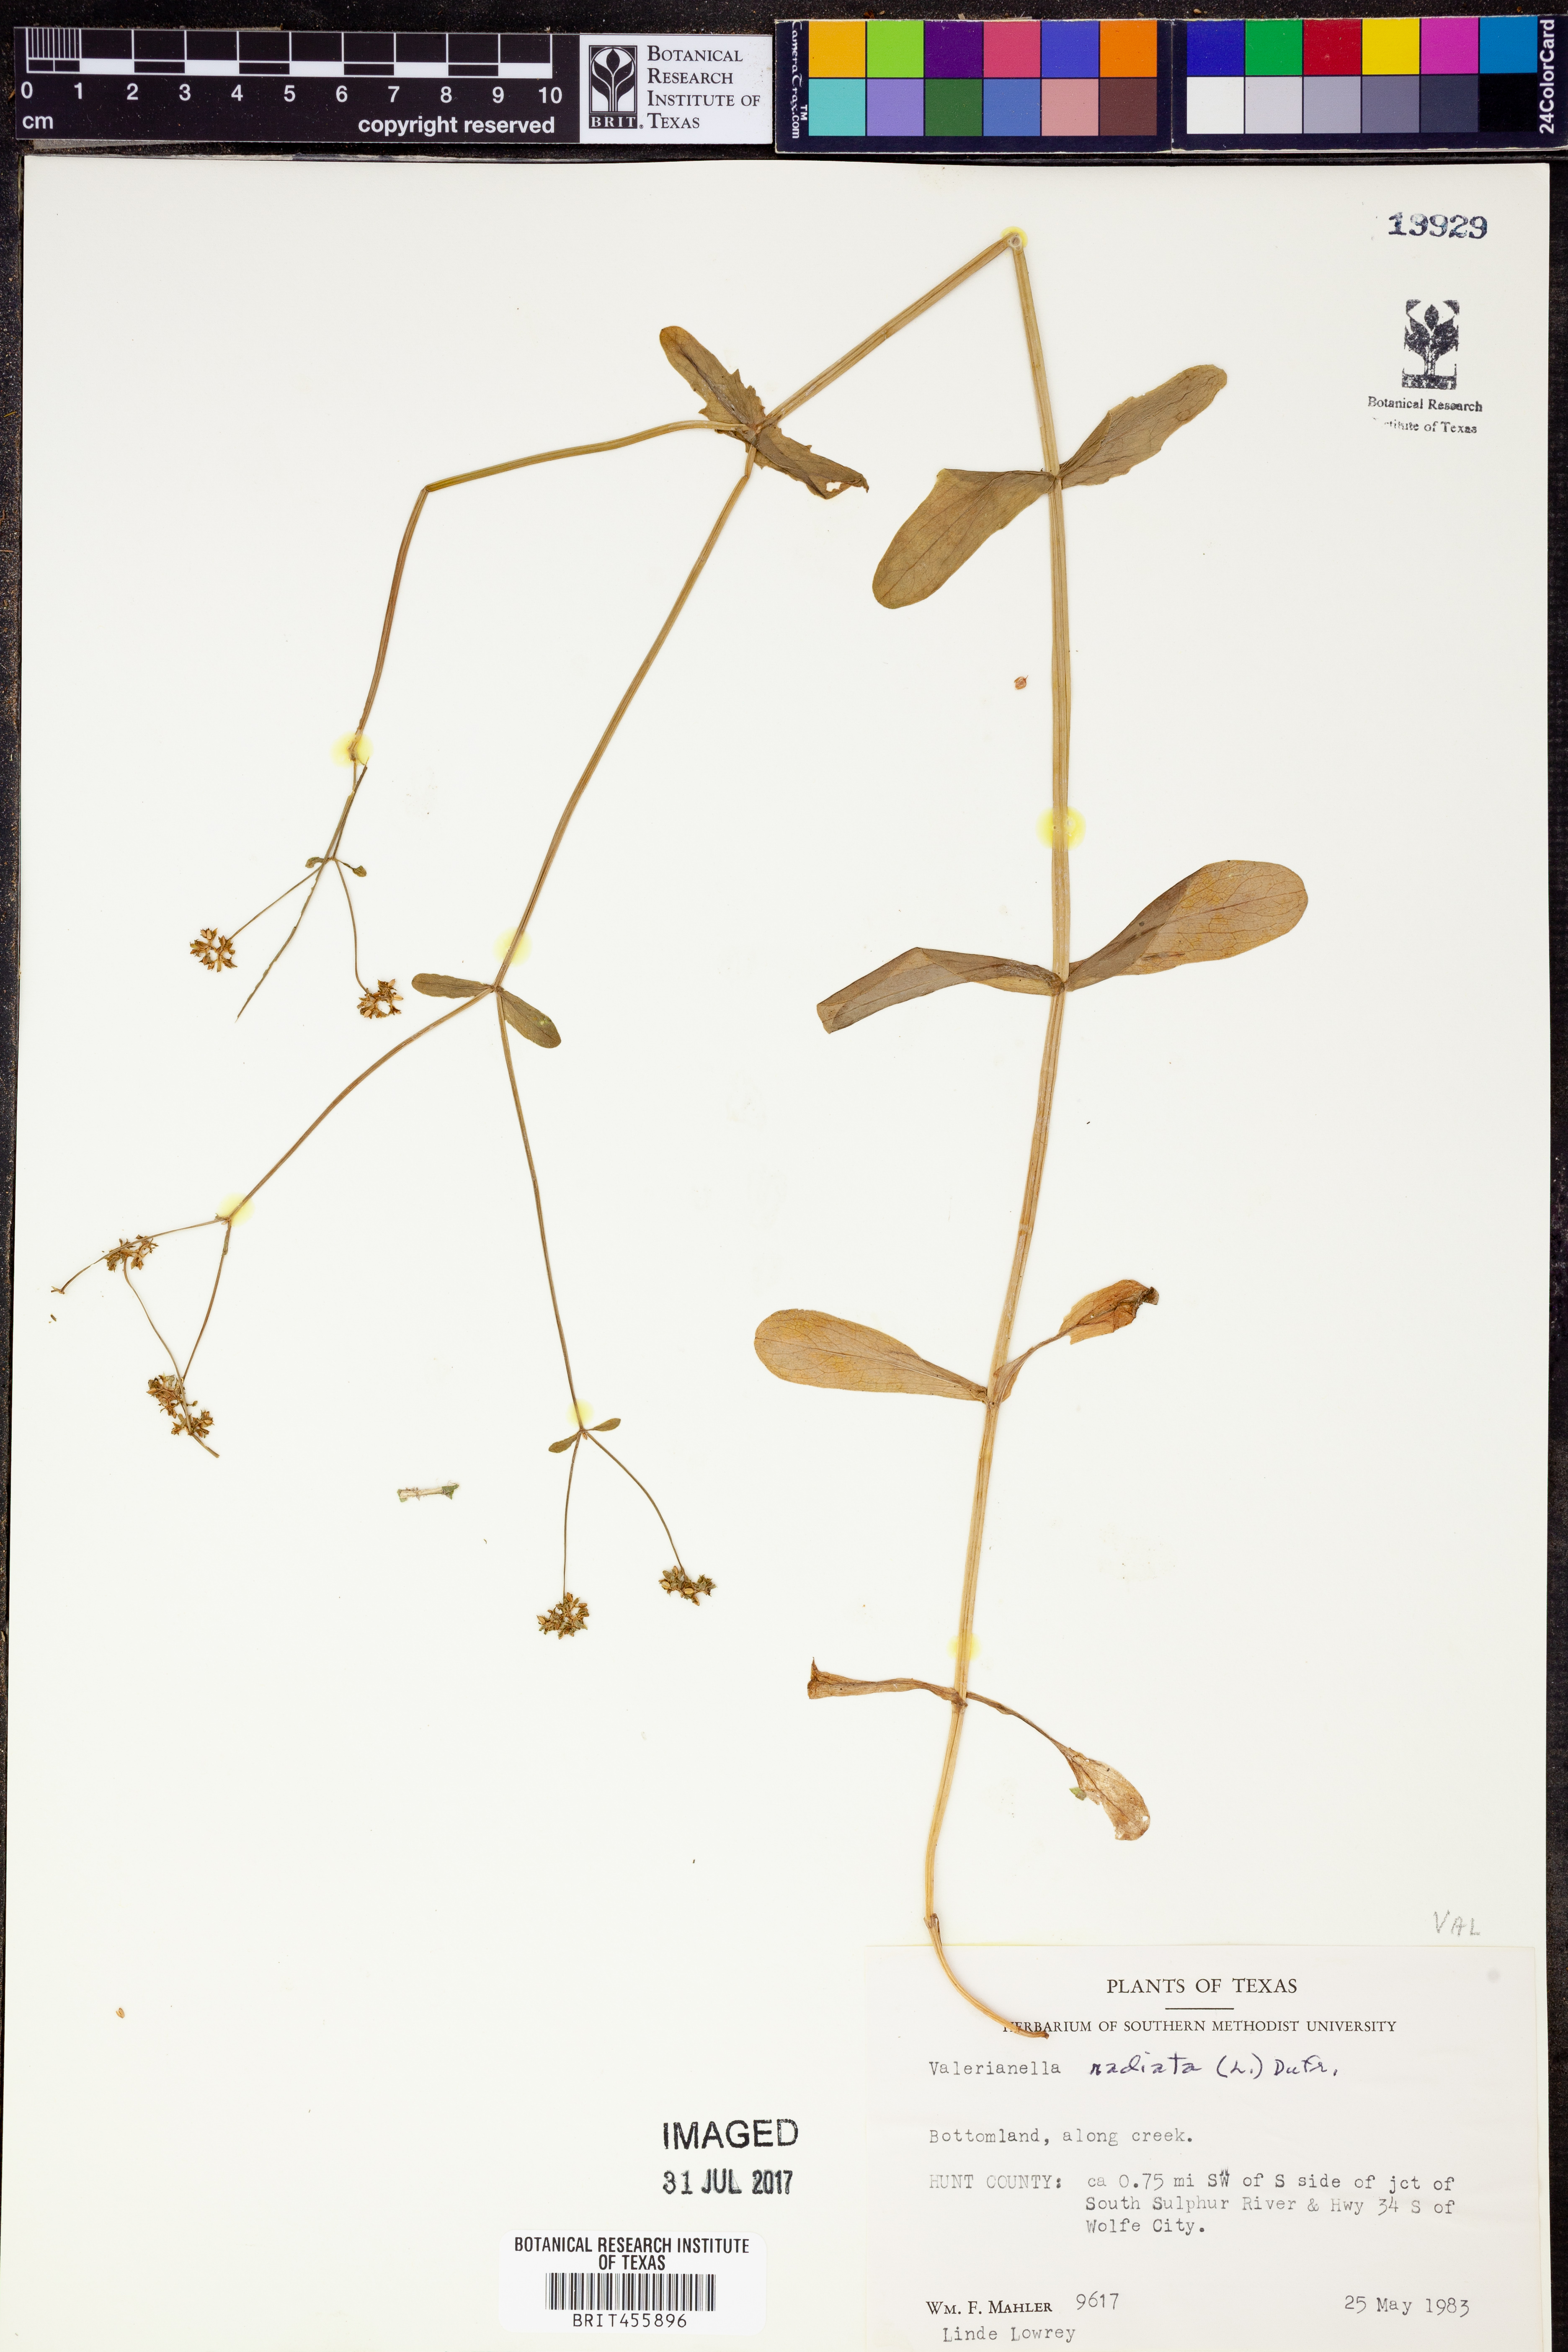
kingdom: Plantae
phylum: Tracheophyta
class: Magnoliopsida
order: Dipsacales
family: Caprifoliaceae
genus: Valerianella
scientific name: Valerianella radiata
